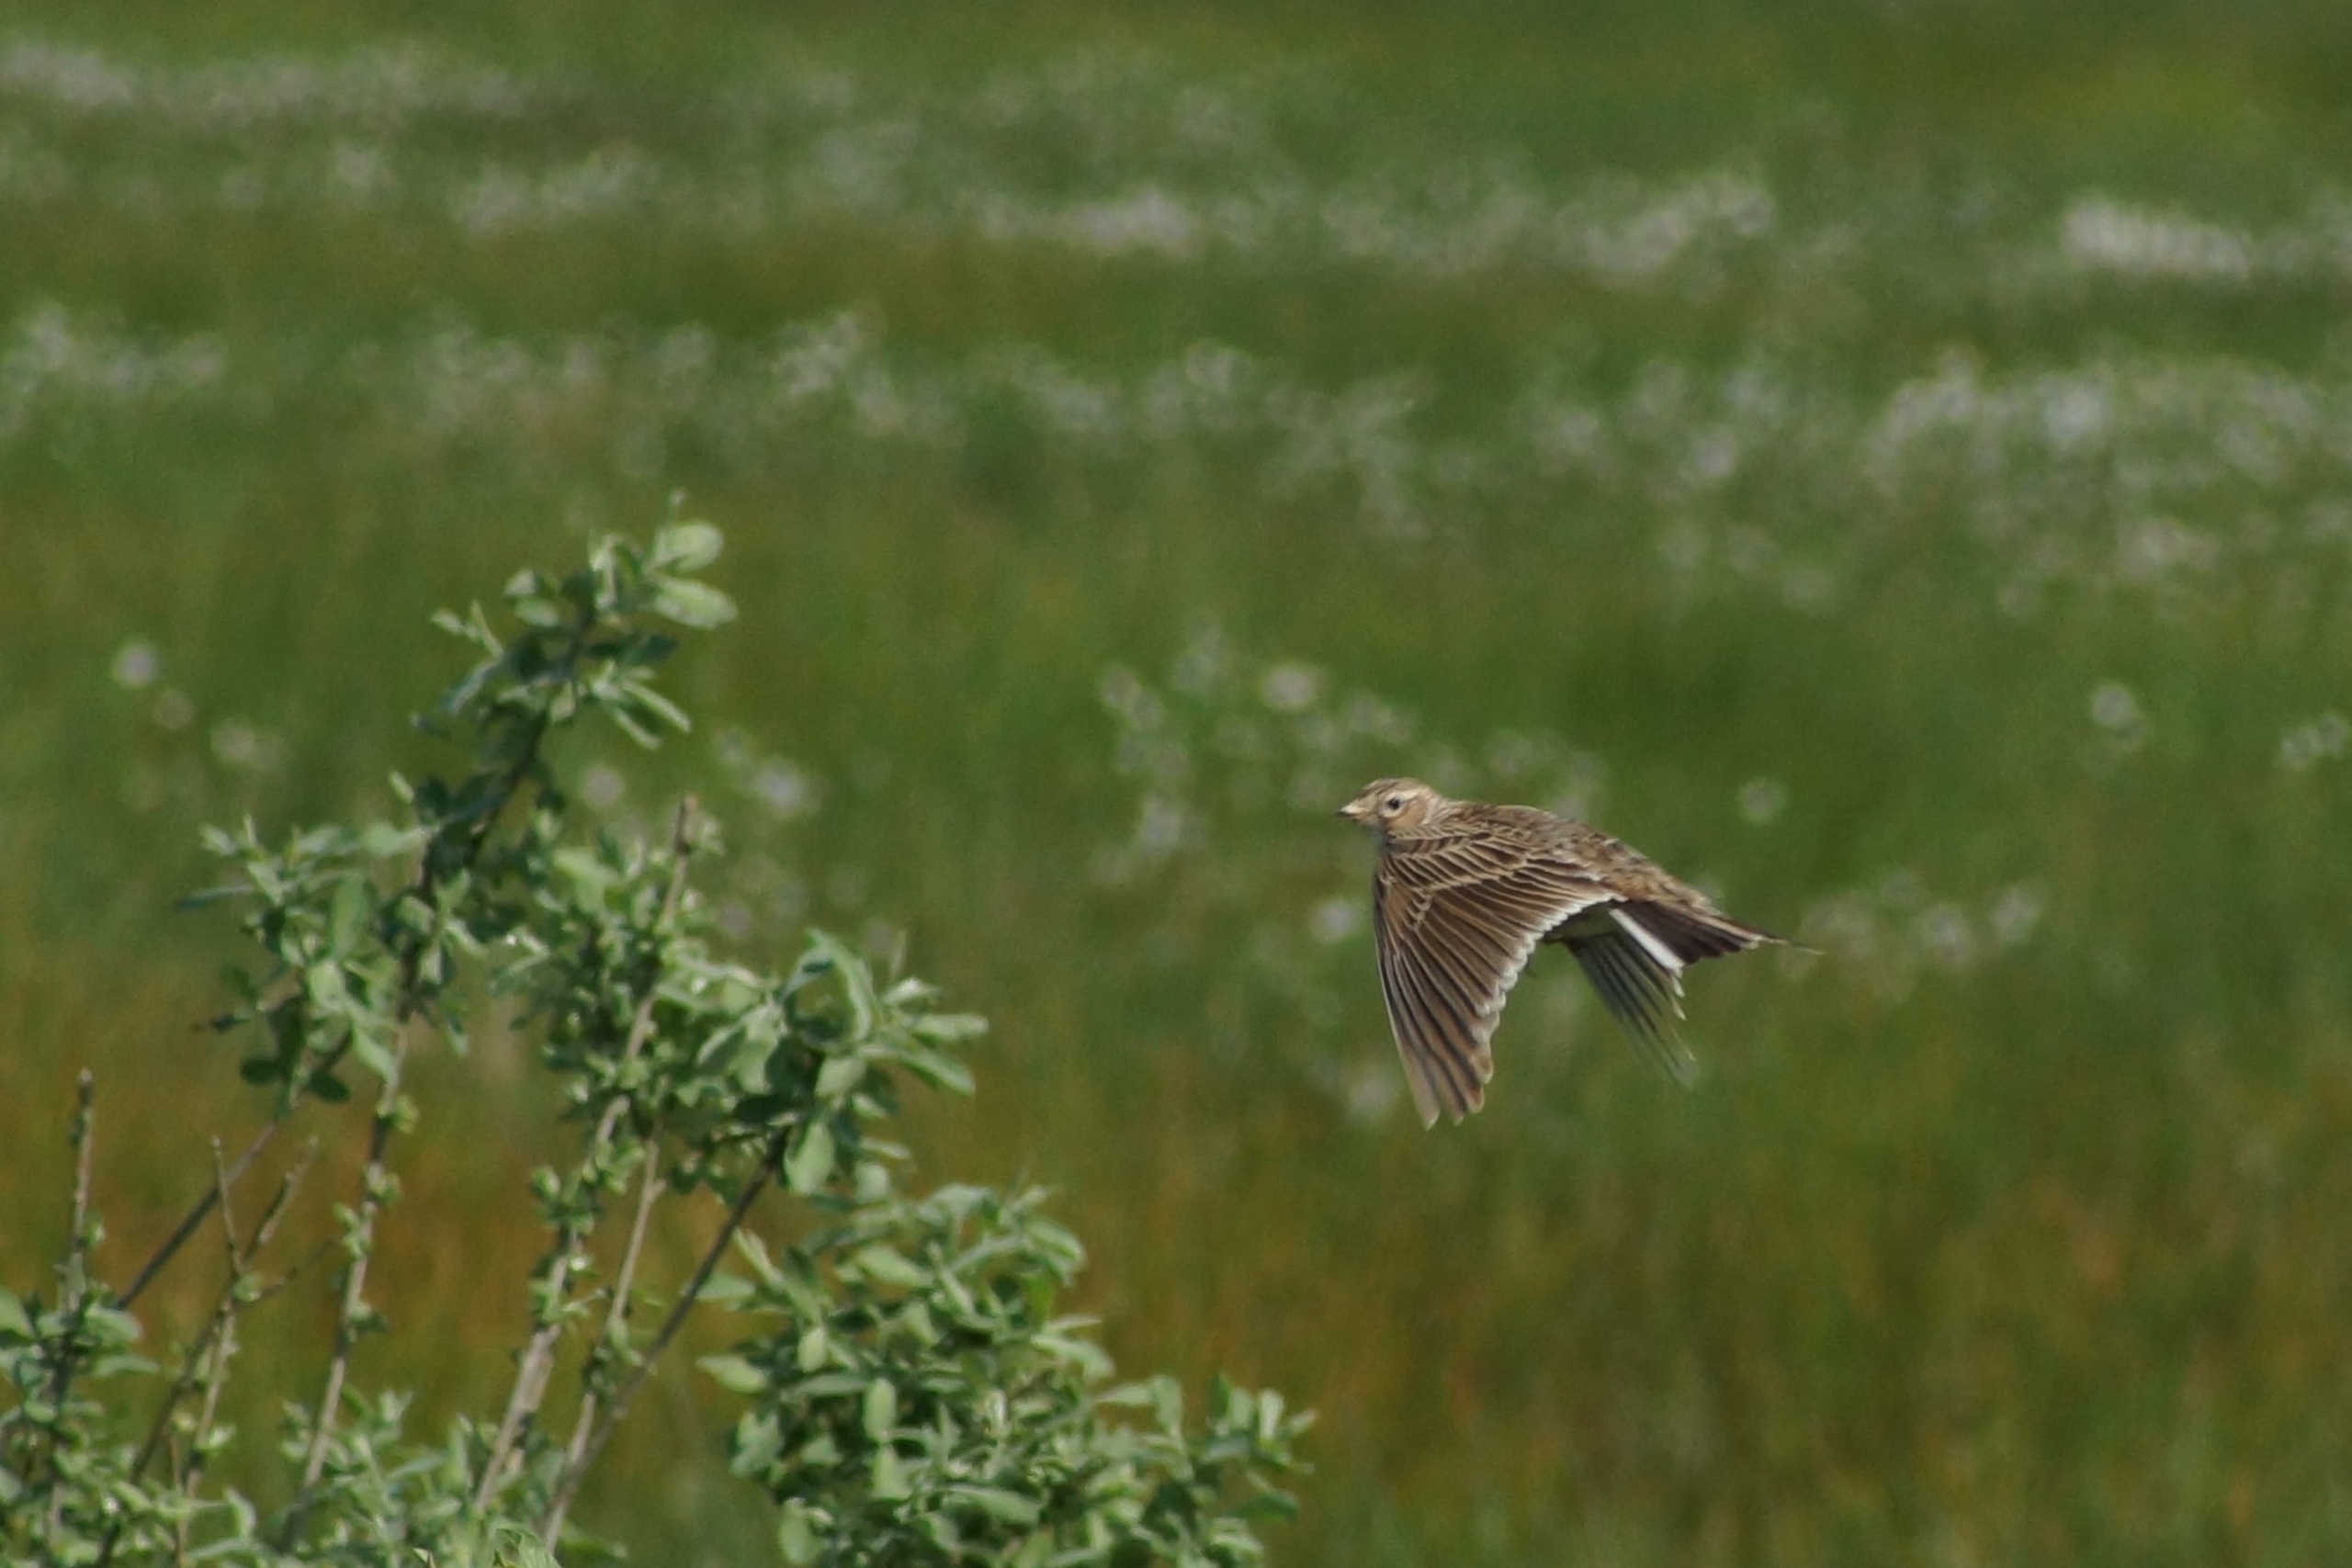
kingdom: Animalia
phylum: Chordata
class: Aves
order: Passeriformes
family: Alaudidae
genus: Alauda
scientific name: Alauda arvensis
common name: Sanglærke
